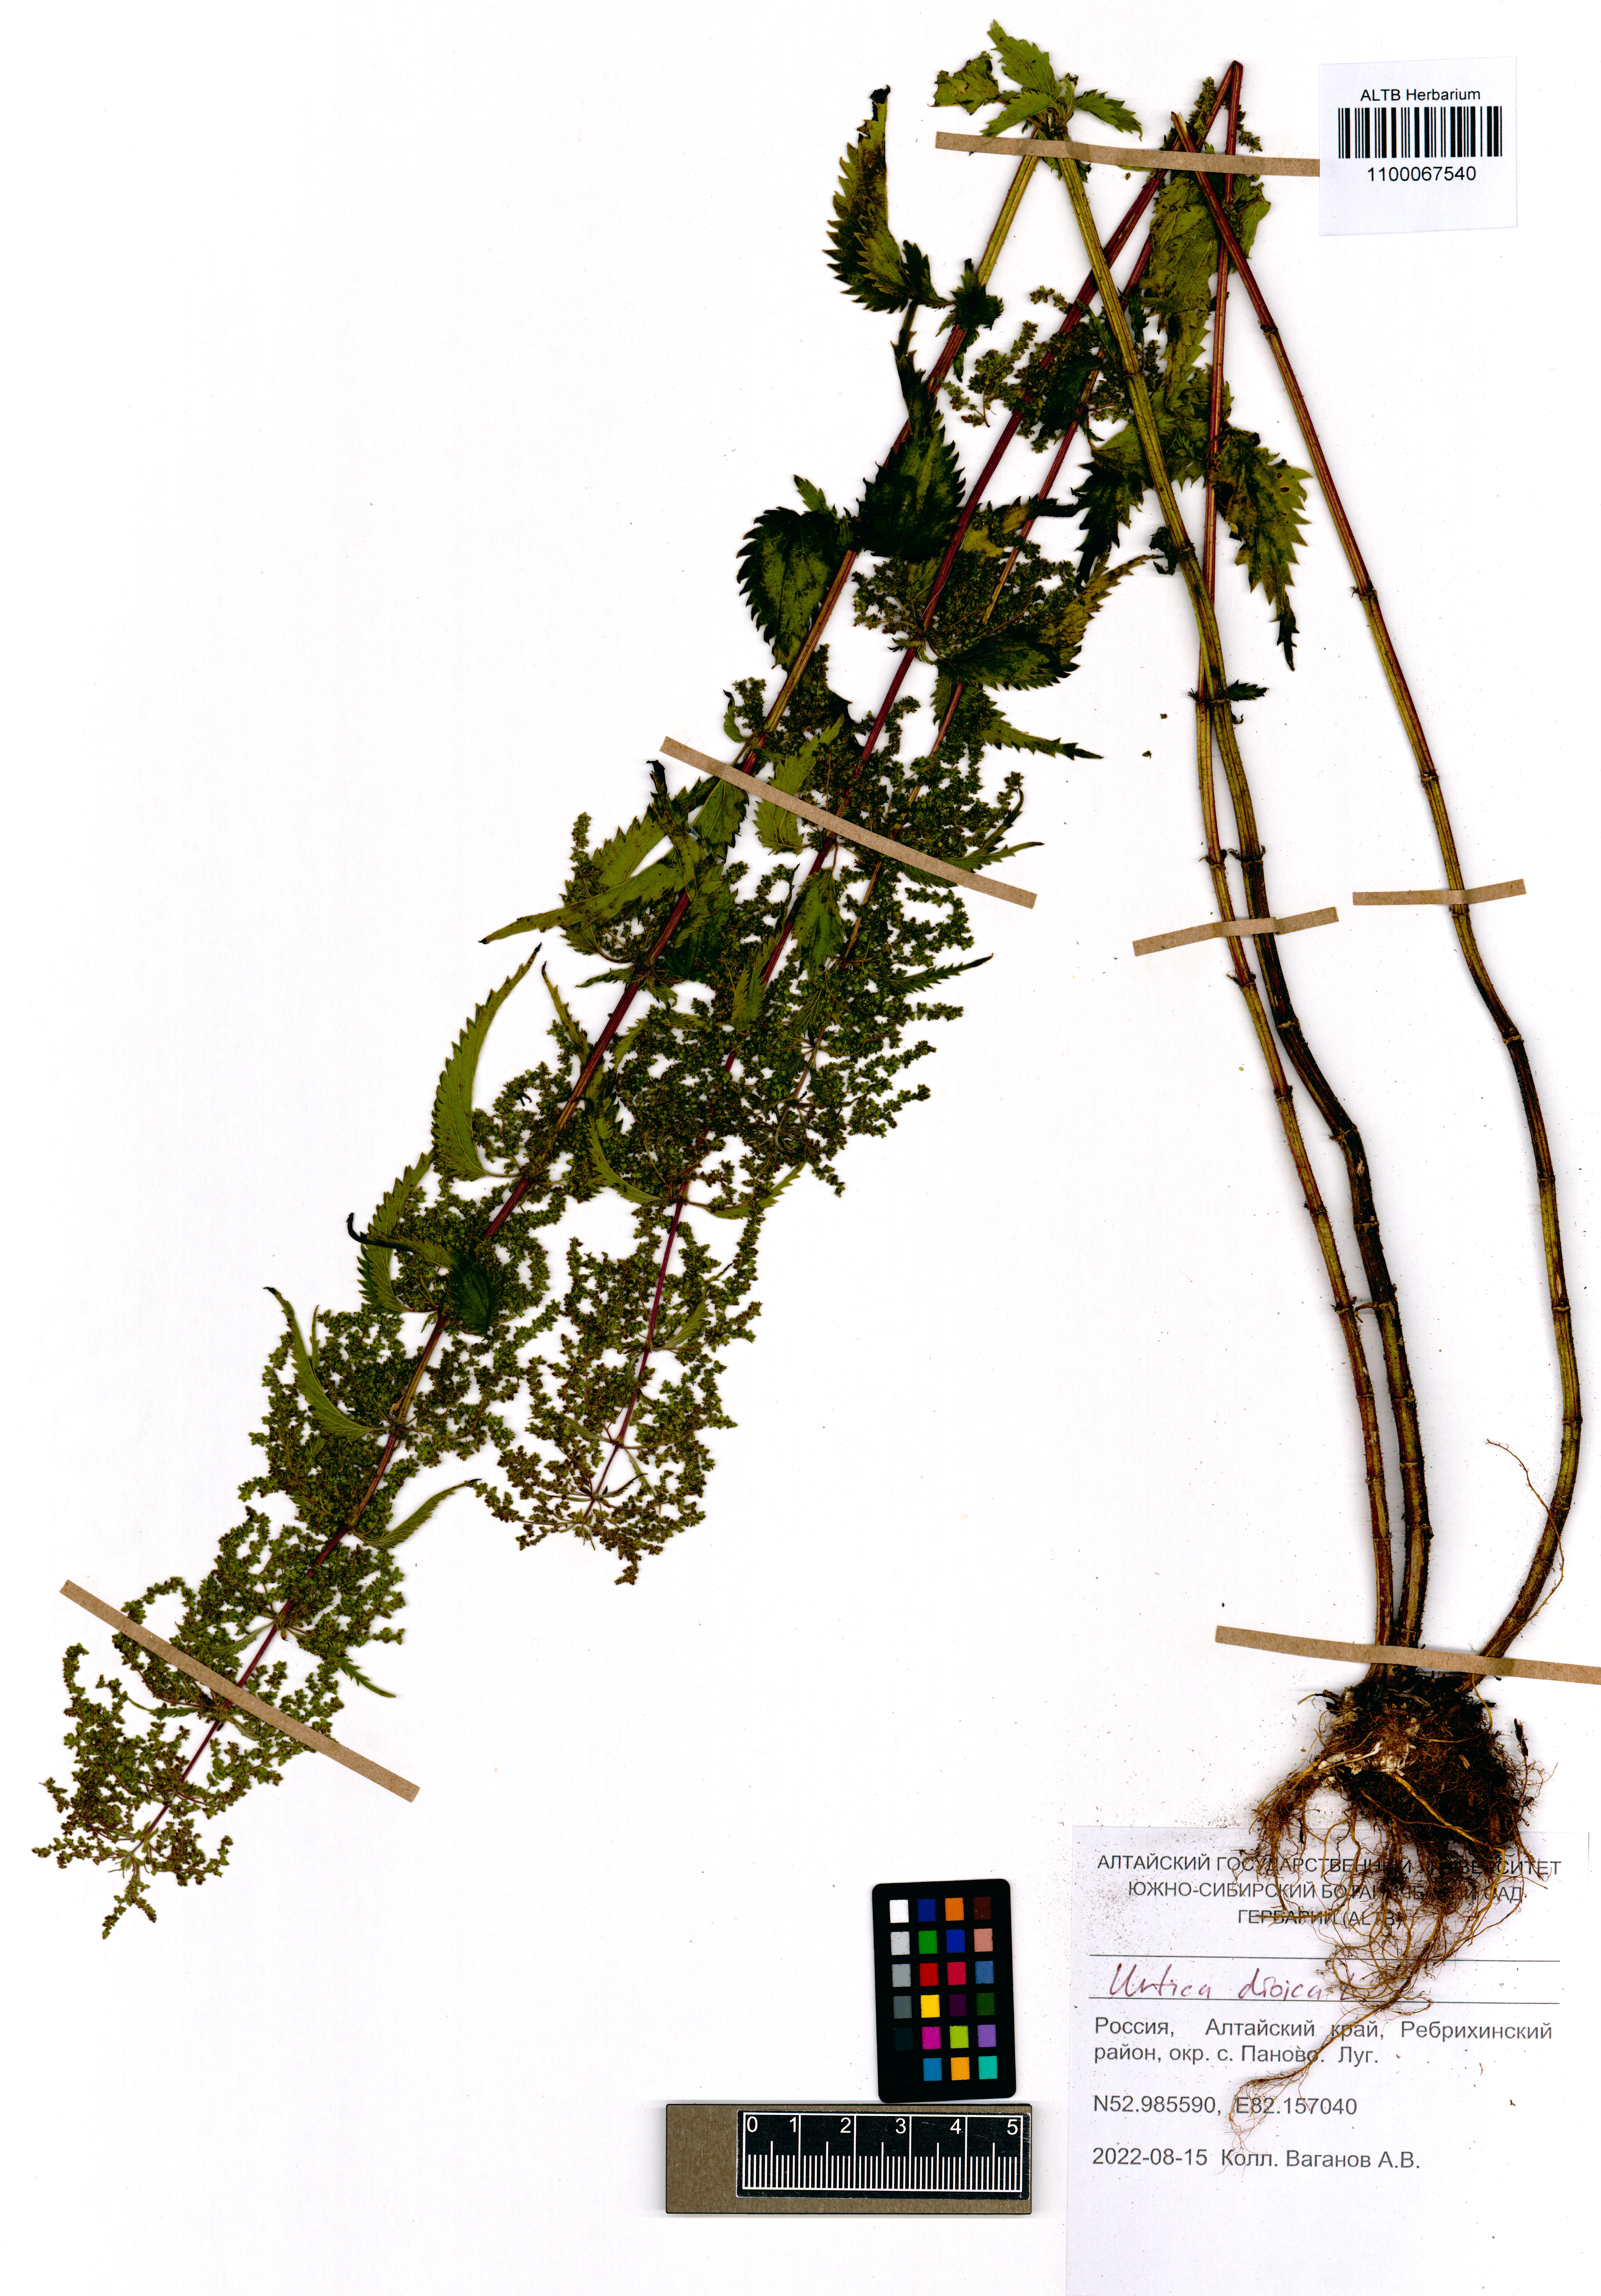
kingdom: Plantae
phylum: Tracheophyta
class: Magnoliopsida
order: Rosales
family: Urticaceae
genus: Urtica
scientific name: Urtica dioica
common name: Common nettle
